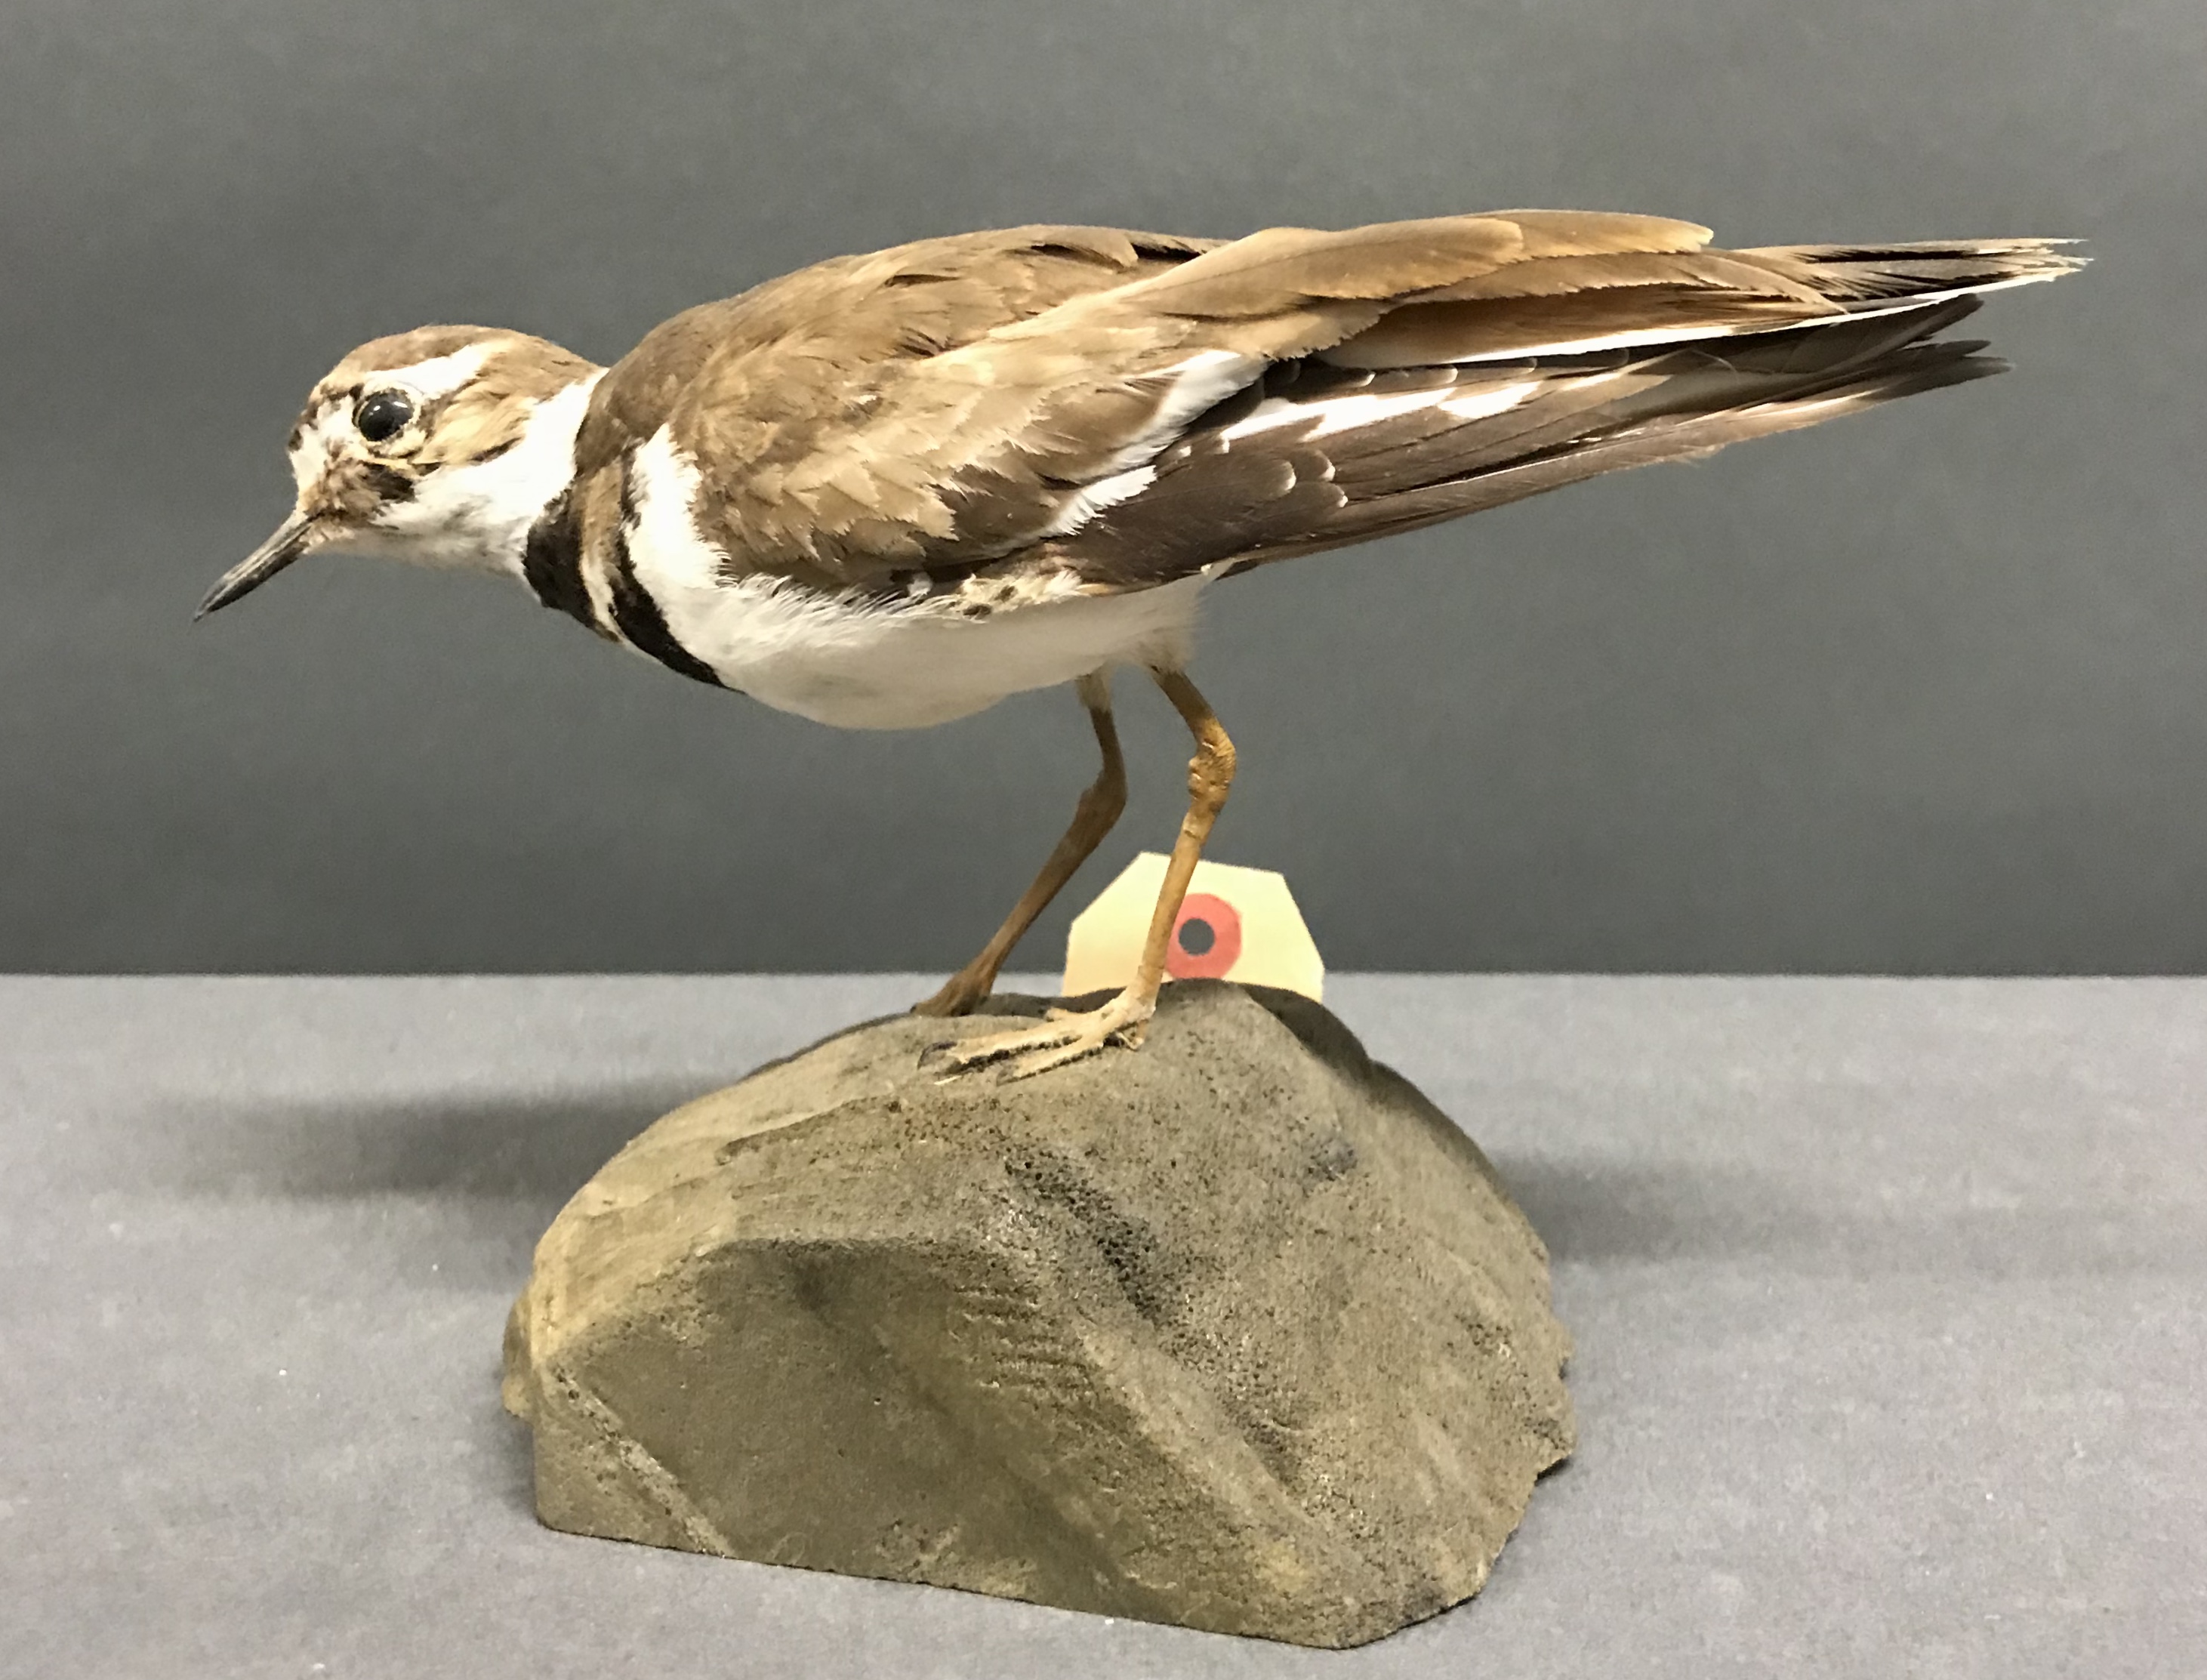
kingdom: Animalia
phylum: Chordata
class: Aves
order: Charadriiformes
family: Charadriidae
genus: Charadrius
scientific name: Charadrius vociferus
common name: Killdeer
